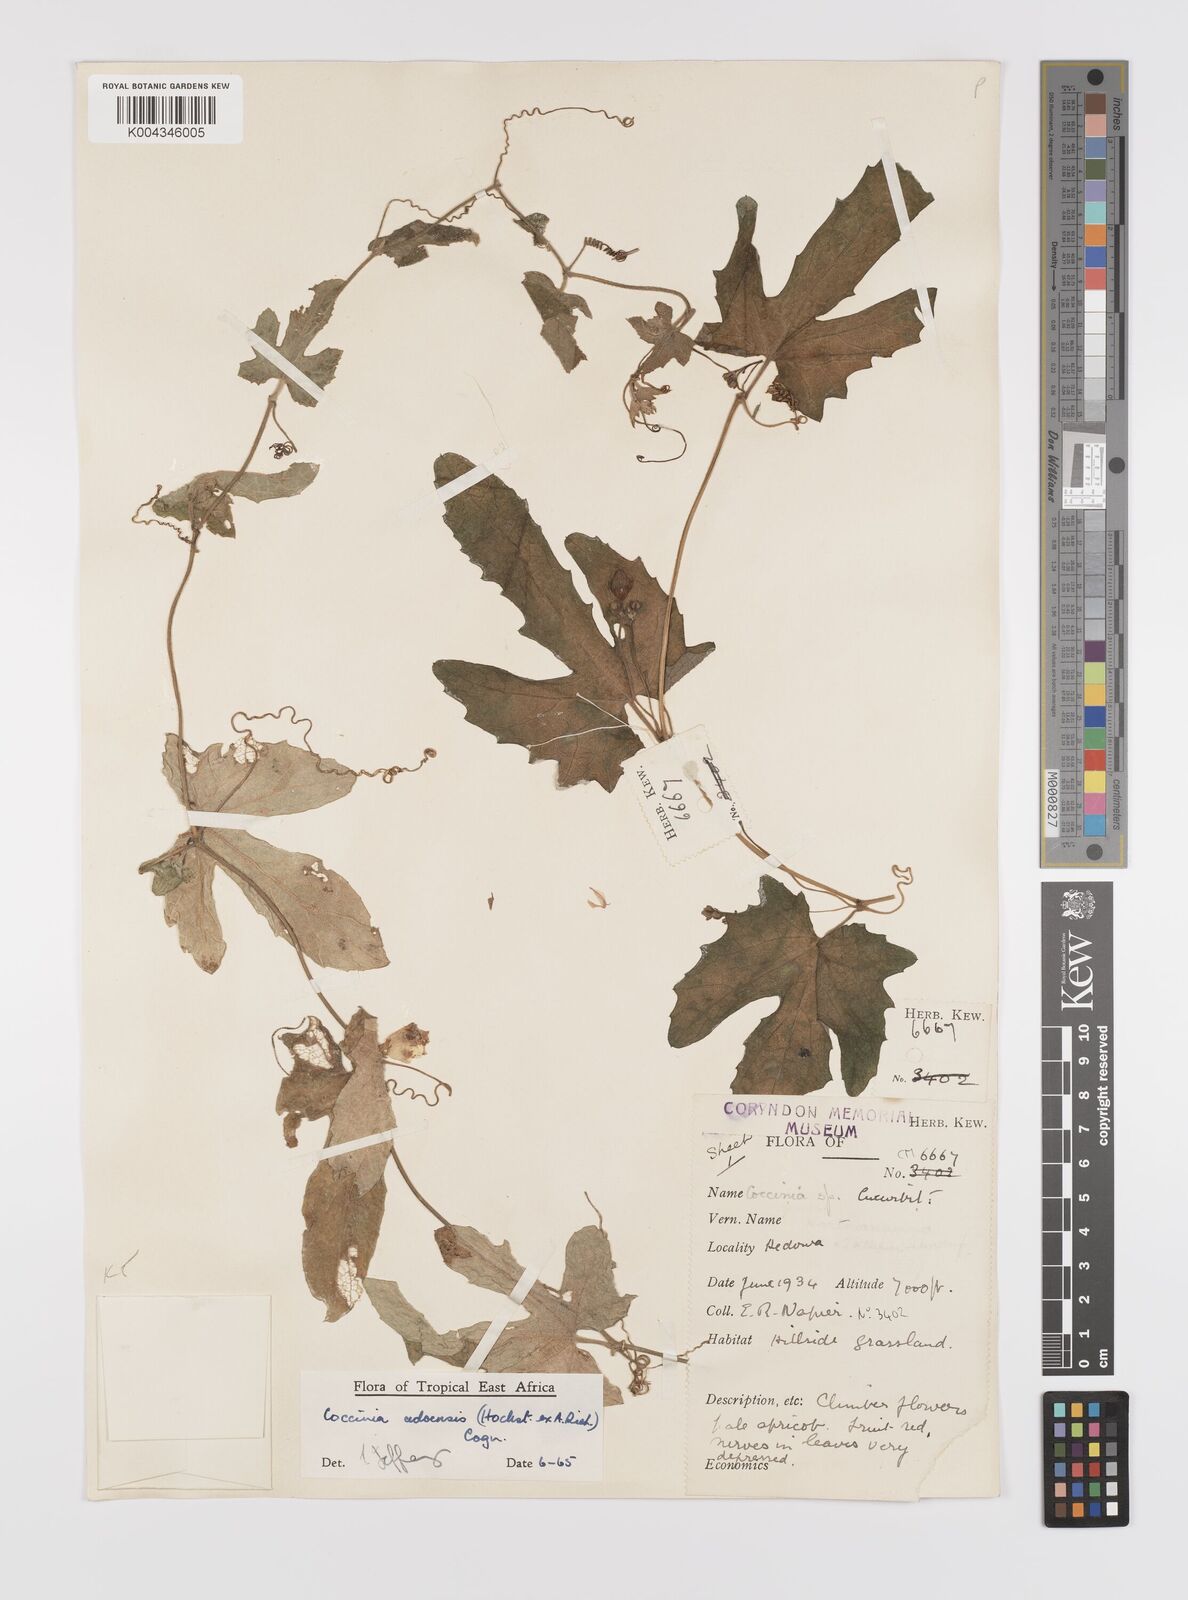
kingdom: Plantae
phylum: Tracheophyta
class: Magnoliopsida
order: Cucurbitales
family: Cucurbitaceae
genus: Coccinia
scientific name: Coccinia adoensis
